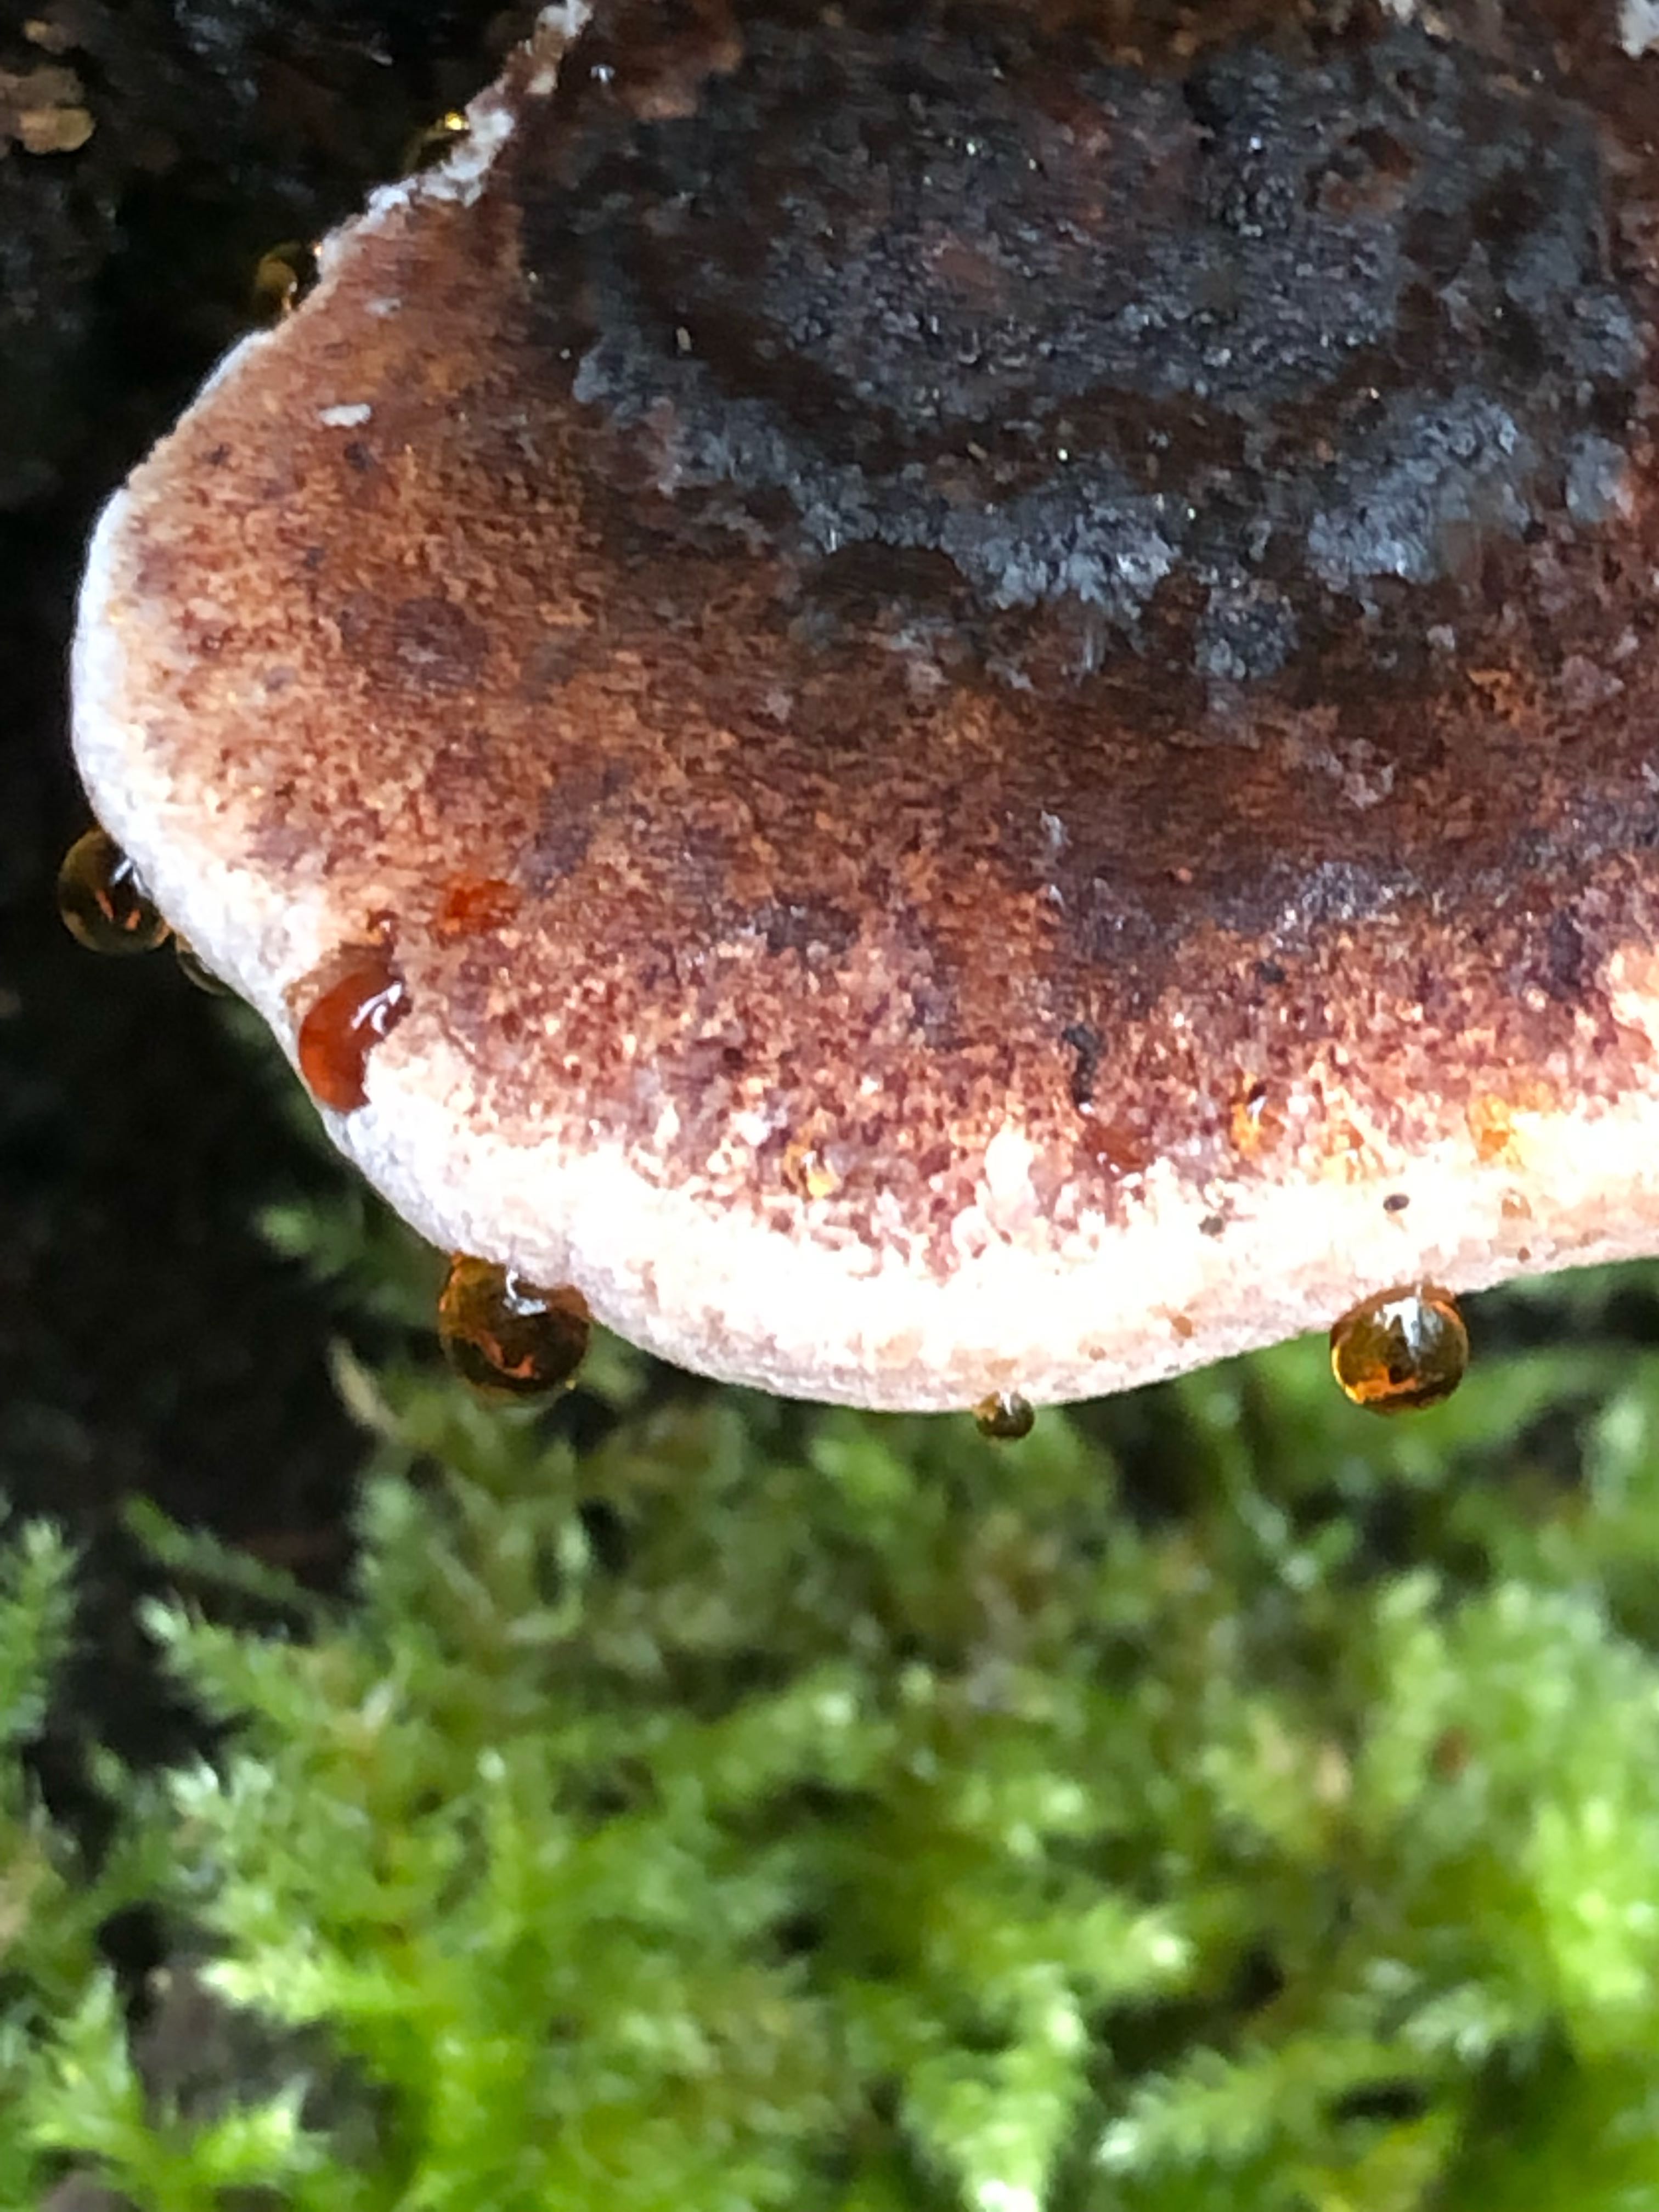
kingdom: Fungi
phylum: Basidiomycota
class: Agaricomycetes
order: Polyporales
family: Ischnodermataceae
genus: Ischnoderma
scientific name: Ischnoderma benzoinum
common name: gran-tjæreporesvamp
